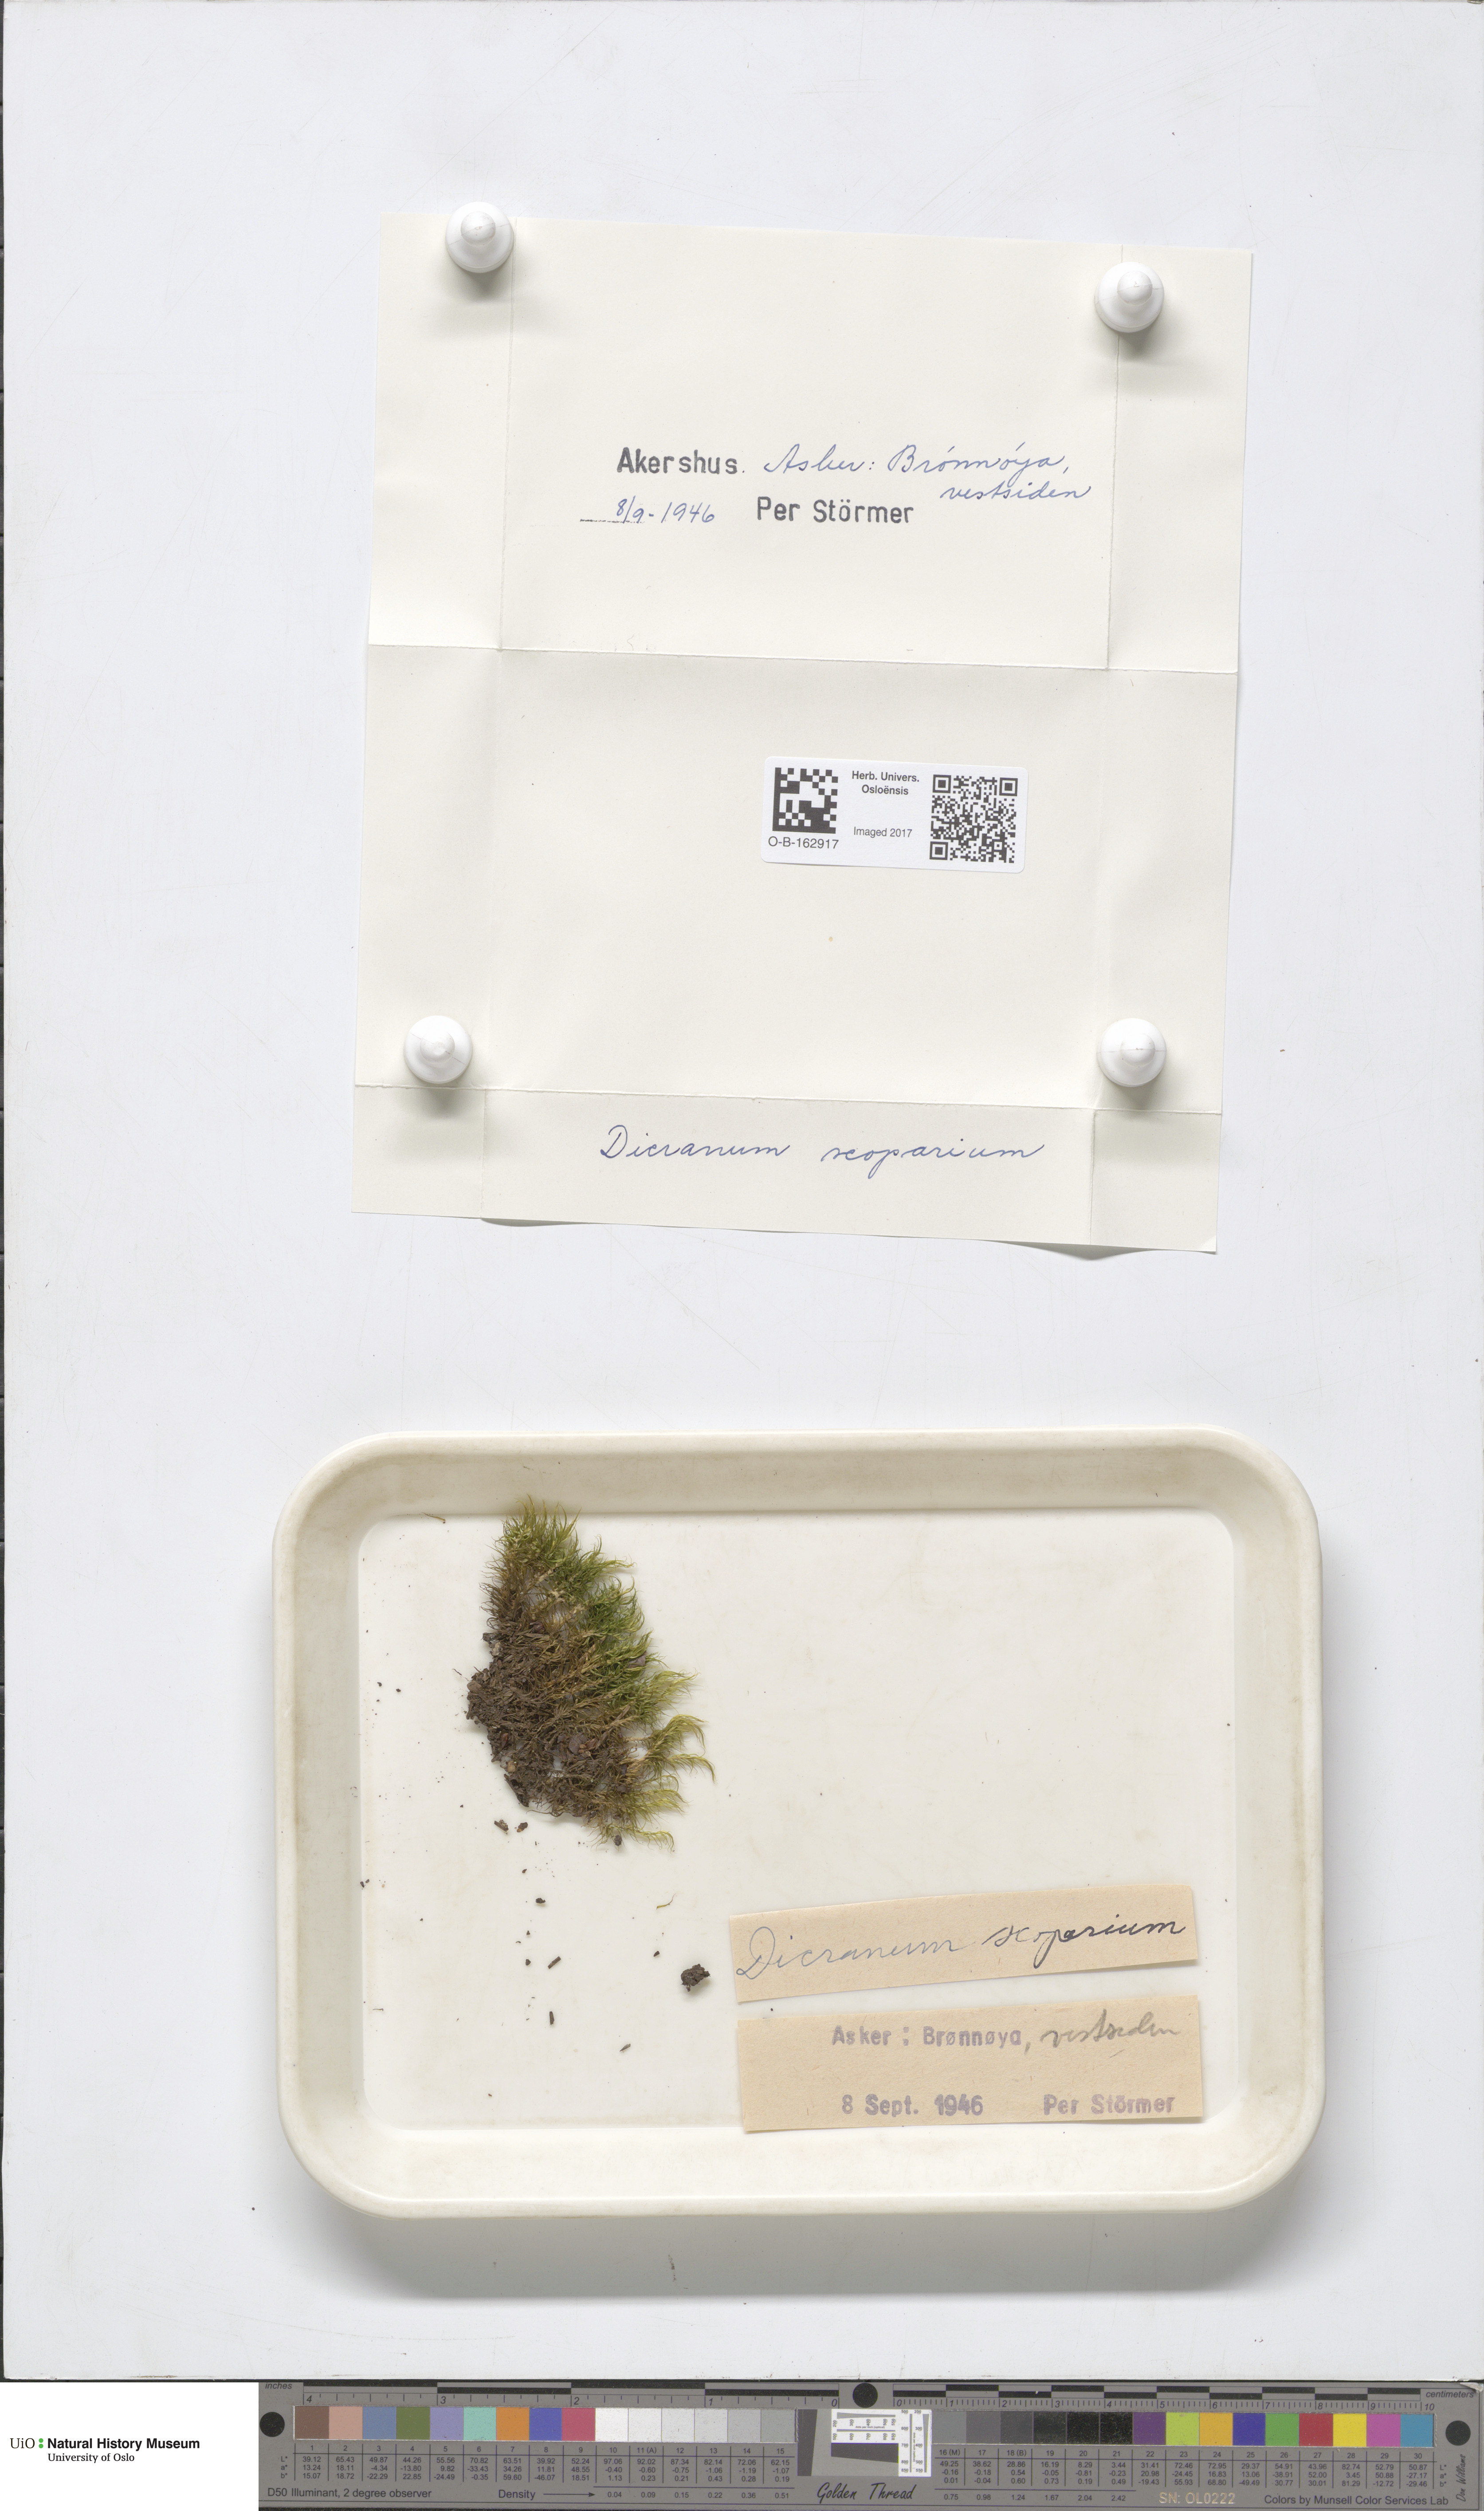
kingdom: Plantae
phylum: Bryophyta
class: Bryopsida
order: Dicranales
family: Dicranaceae
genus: Dicranum
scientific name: Dicranum scoparium
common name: Broom fork-moss
